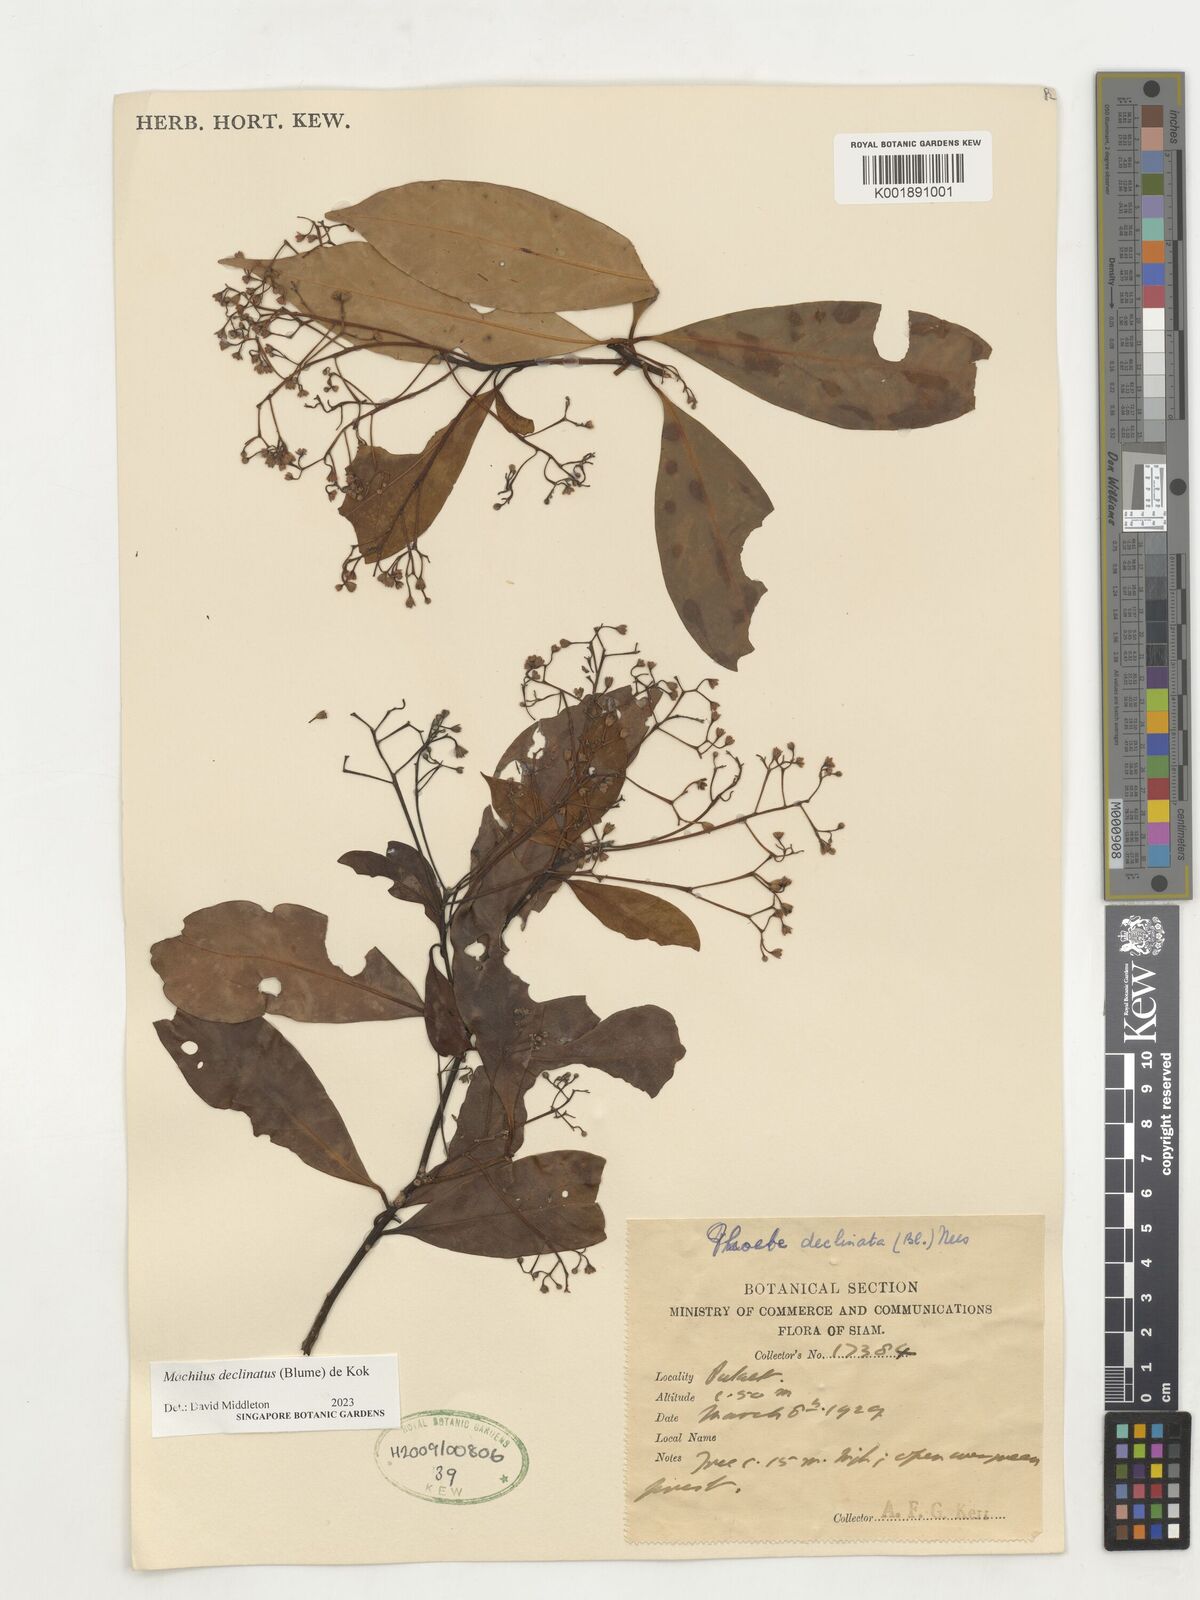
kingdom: Plantae
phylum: Tracheophyta
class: Magnoliopsida
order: Laurales
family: Lauraceae
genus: Machilus
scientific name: Machilus declinata
